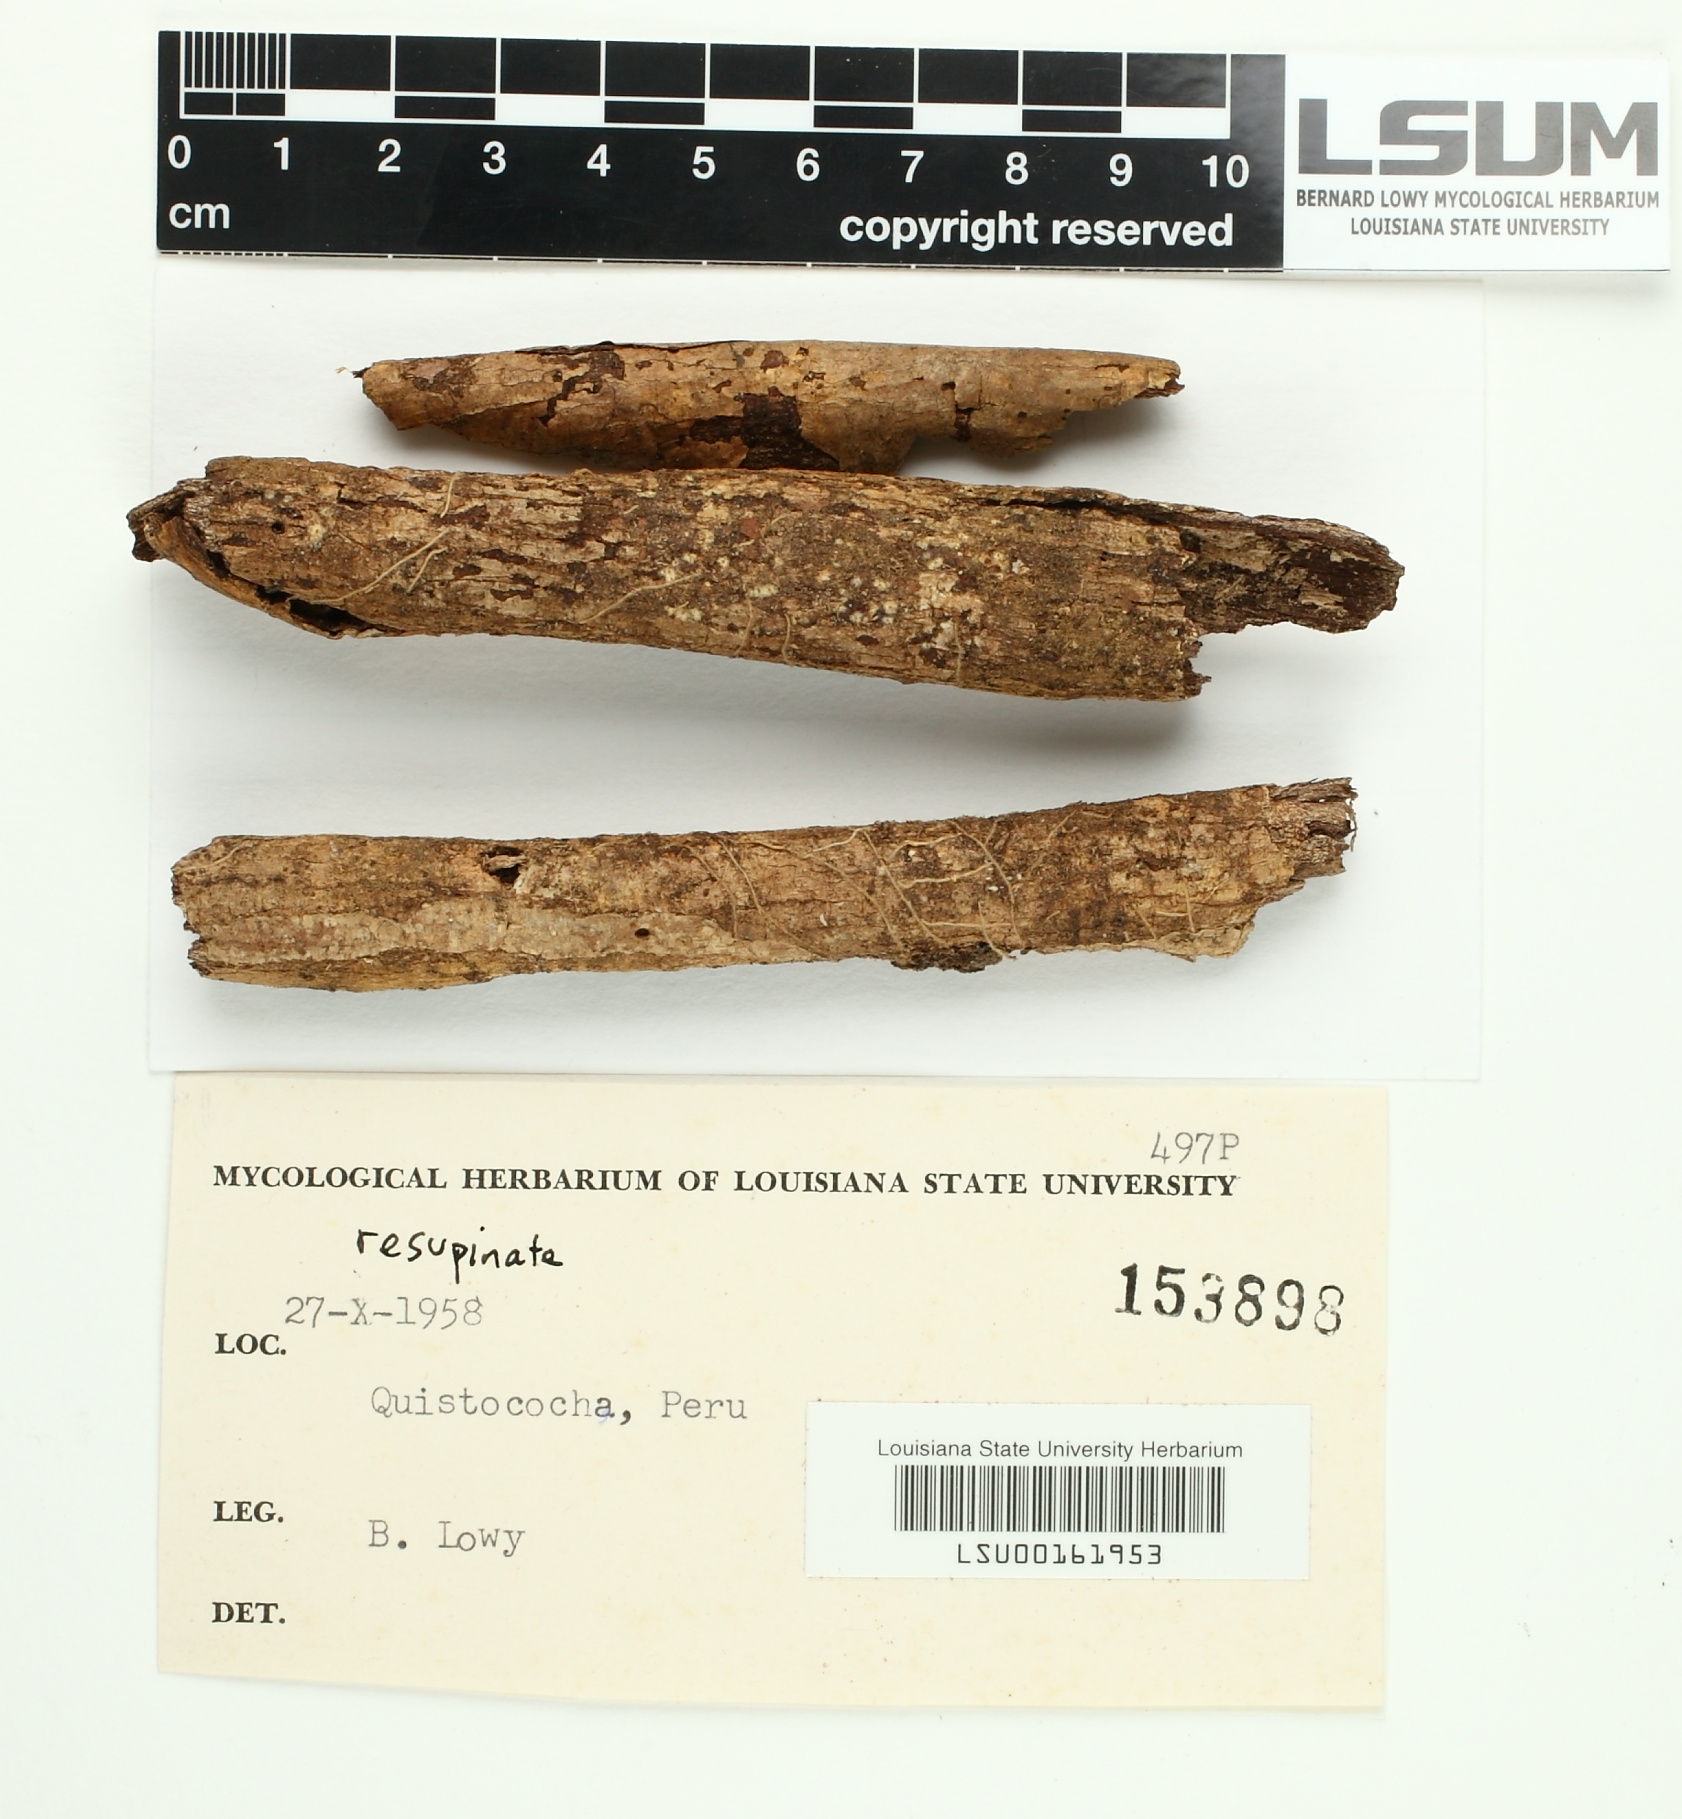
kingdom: Fungi
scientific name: Fungi
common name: Fungi
